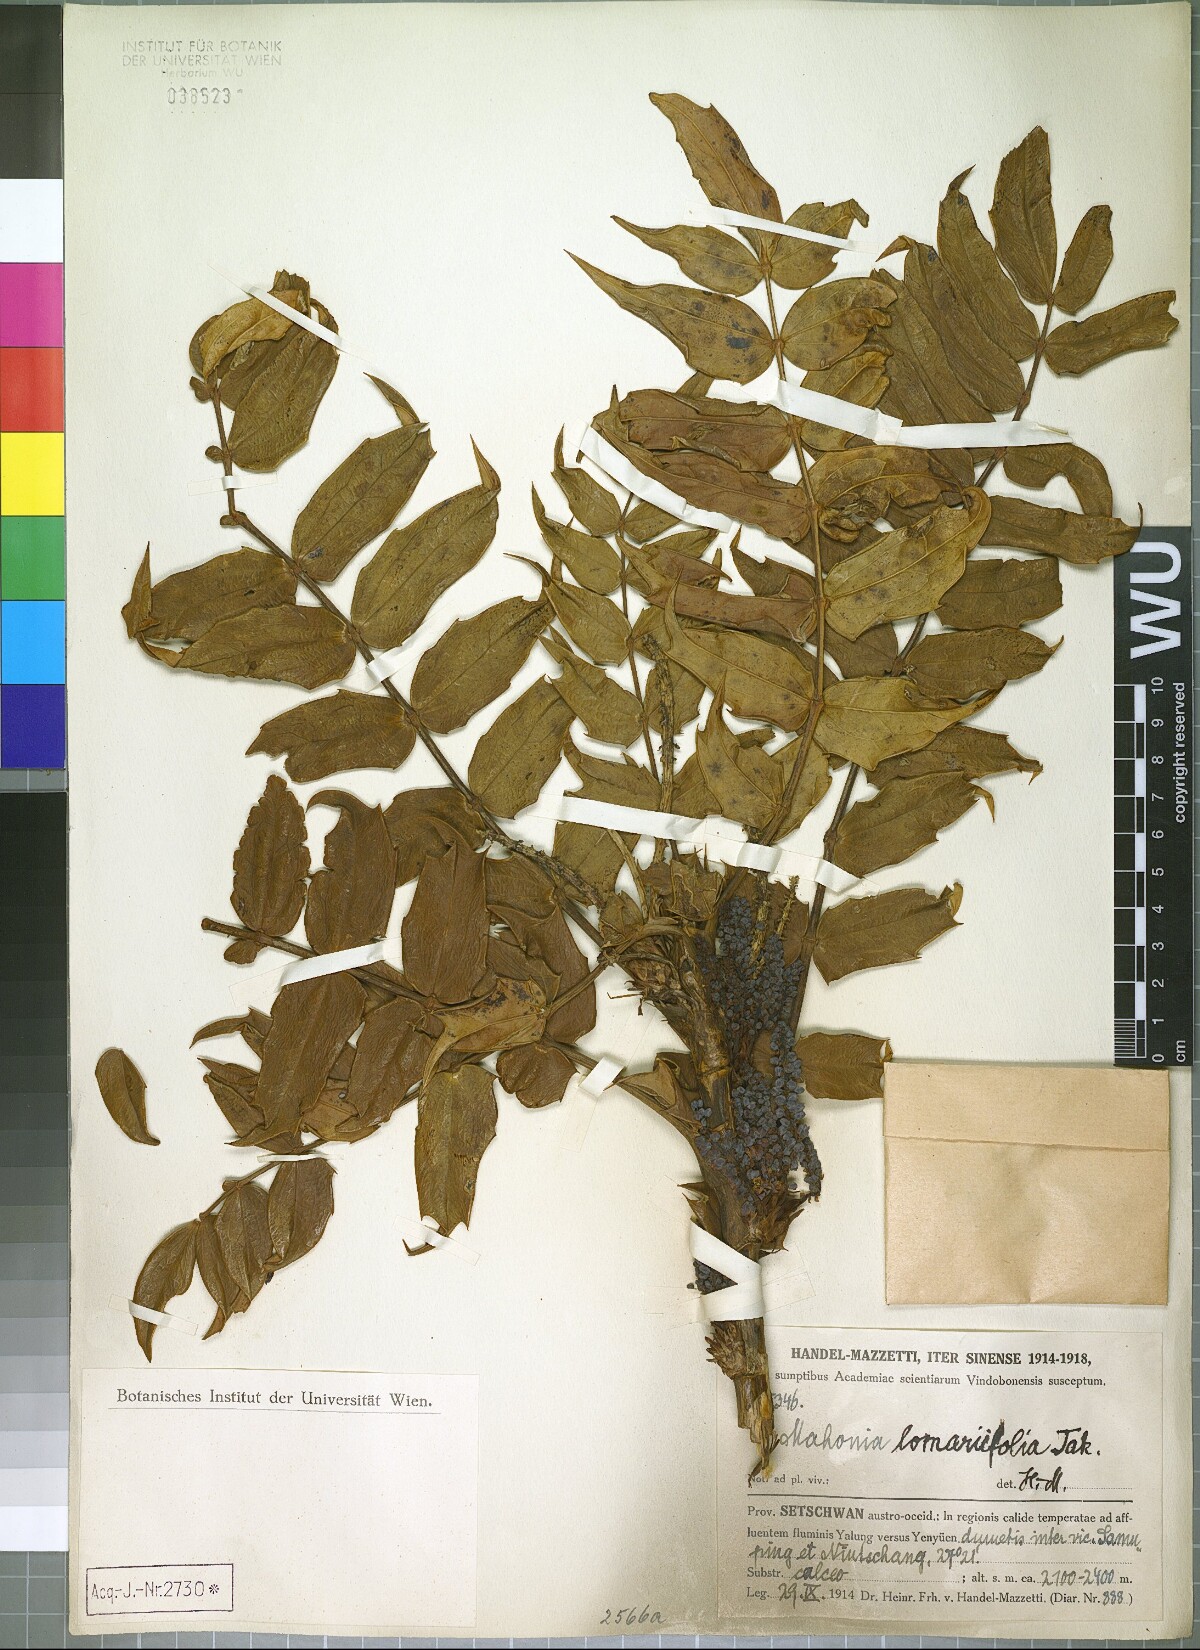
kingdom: Plantae
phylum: Tracheophyta
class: Magnoliopsida
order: Ranunculales
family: Berberidaceae
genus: Mahonia
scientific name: Mahonia oiwakensis
